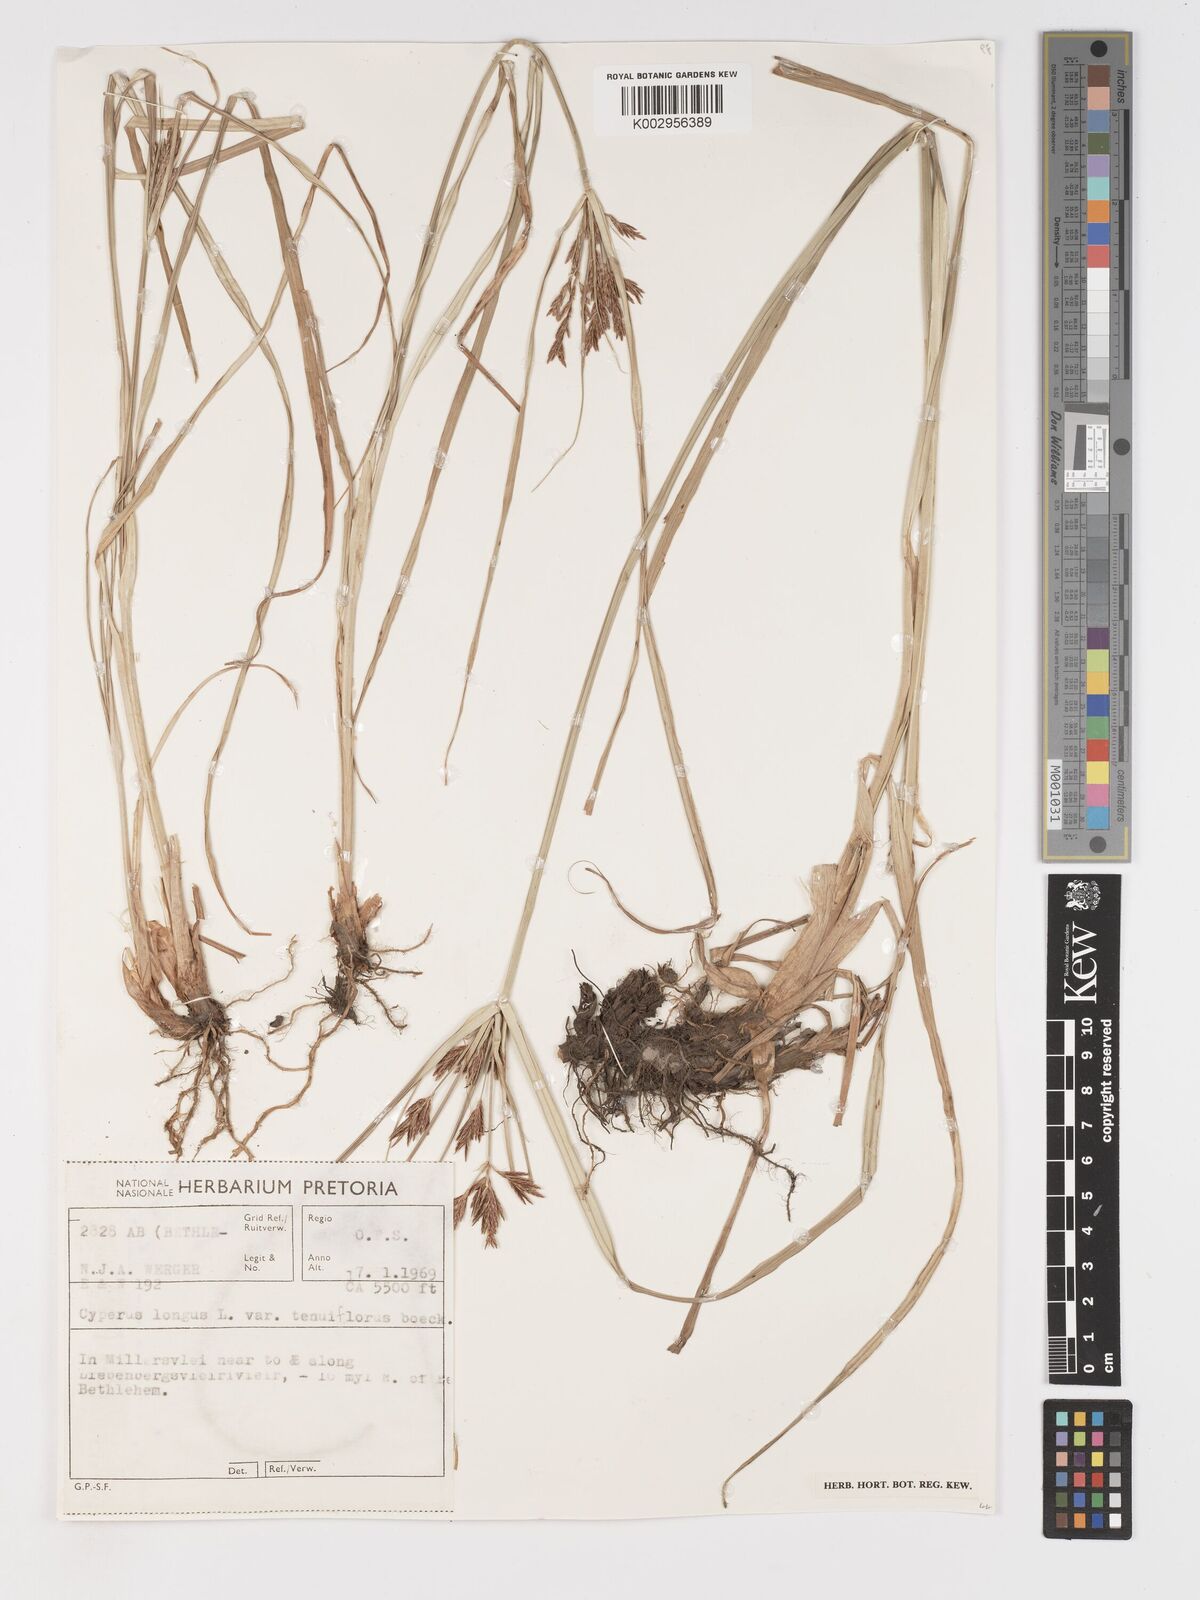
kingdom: Plantae
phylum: Tracheophyta
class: Liliopsida
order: Poales
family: Cyperaceae
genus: Cyperus
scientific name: Cyperus longus
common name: Galingale
